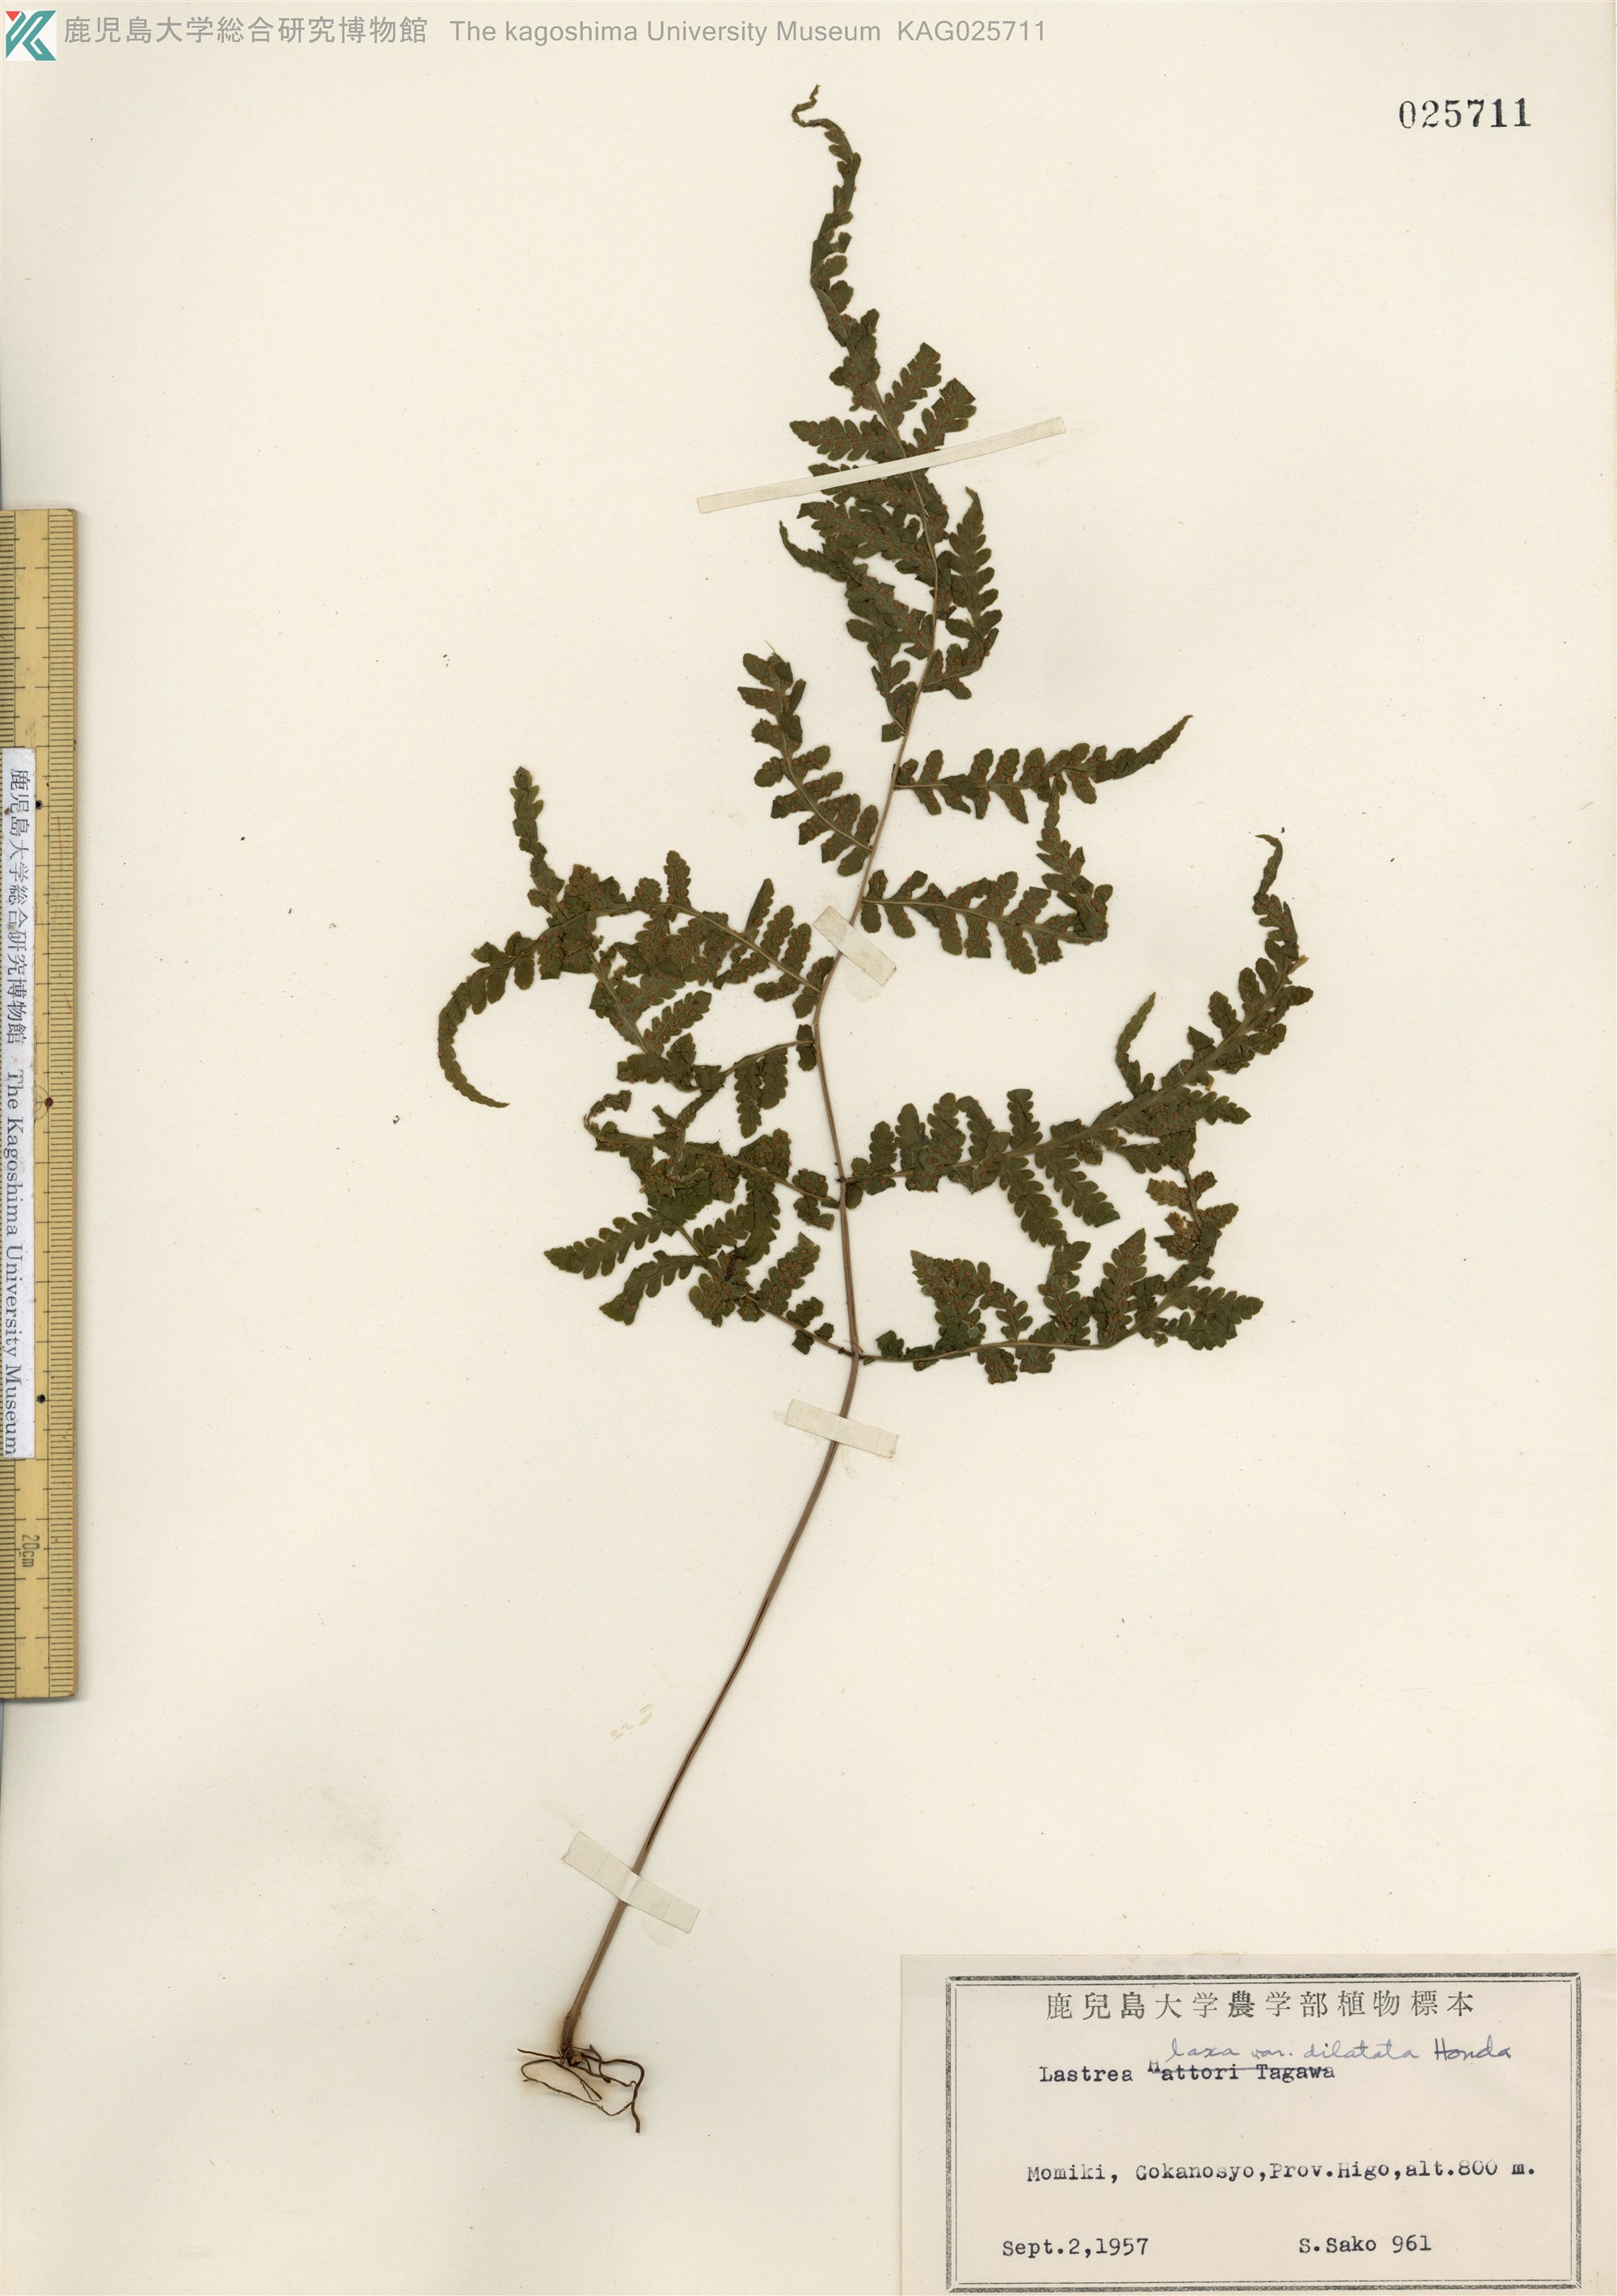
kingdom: Plantae
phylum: Tracheophyta
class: Polypodiopsida
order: Polypodiales
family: Thelypteridaceae
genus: Metathelypteris
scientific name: Metathelypteris hattori
